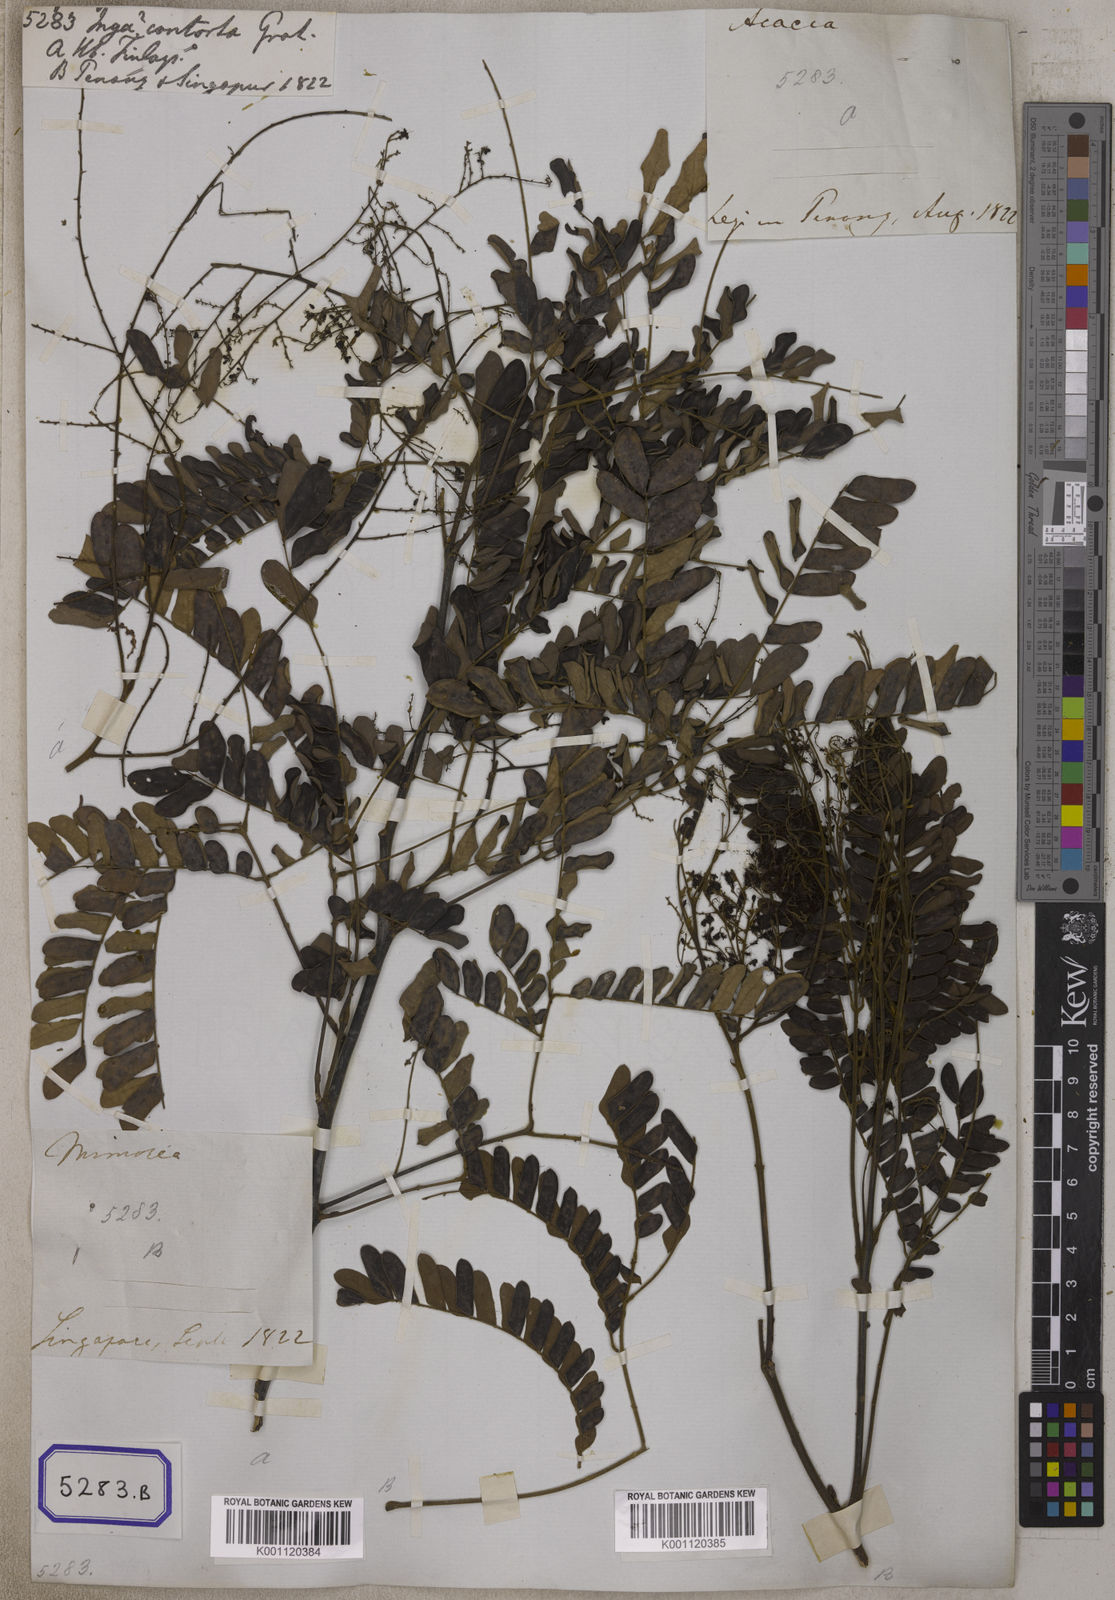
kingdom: Plantae
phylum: Tracheophyta
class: Magnoliopsida
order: Fabales
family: Fabaceae
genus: Archidendron
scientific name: Archidendron contortum
